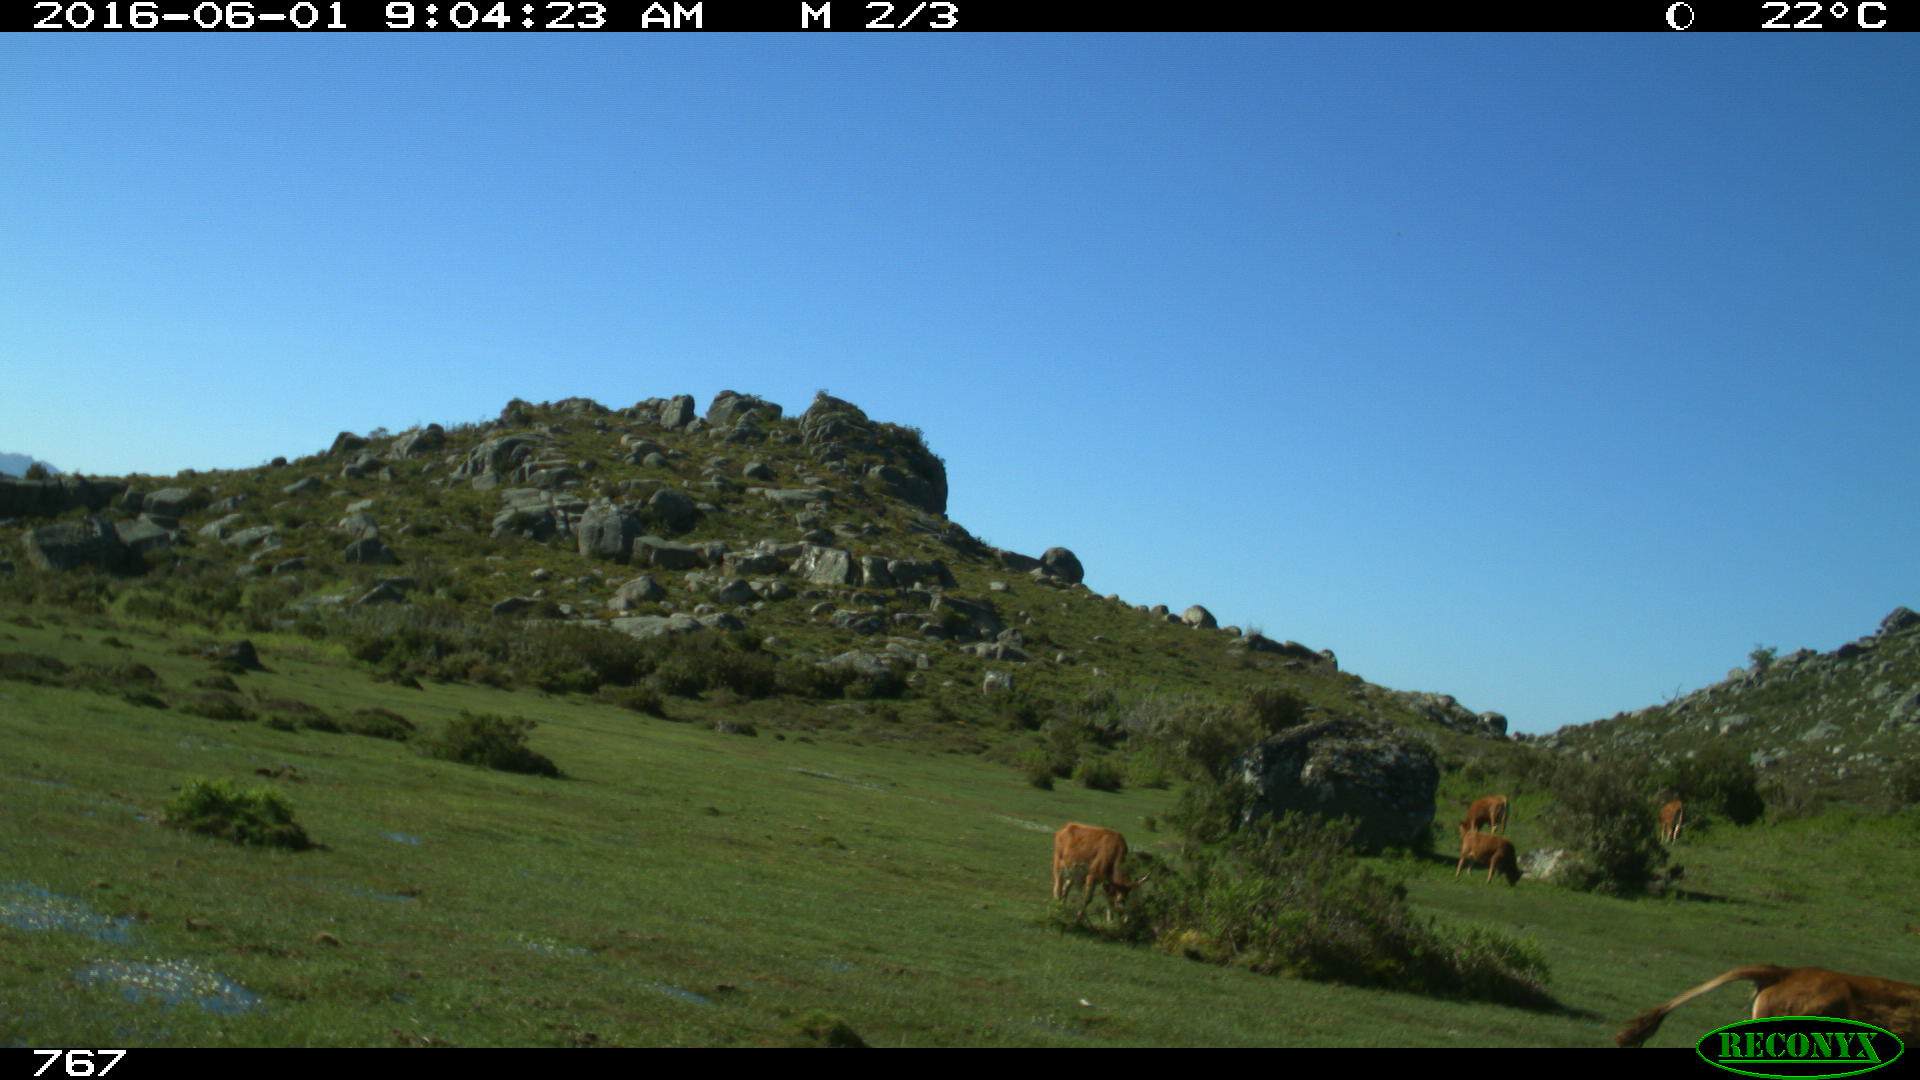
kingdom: Animalia
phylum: Chordata
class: Mammalia
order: Artiodactyla
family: Bovidae
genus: Bos
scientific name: Bos taurus
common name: Domesticated cattle
